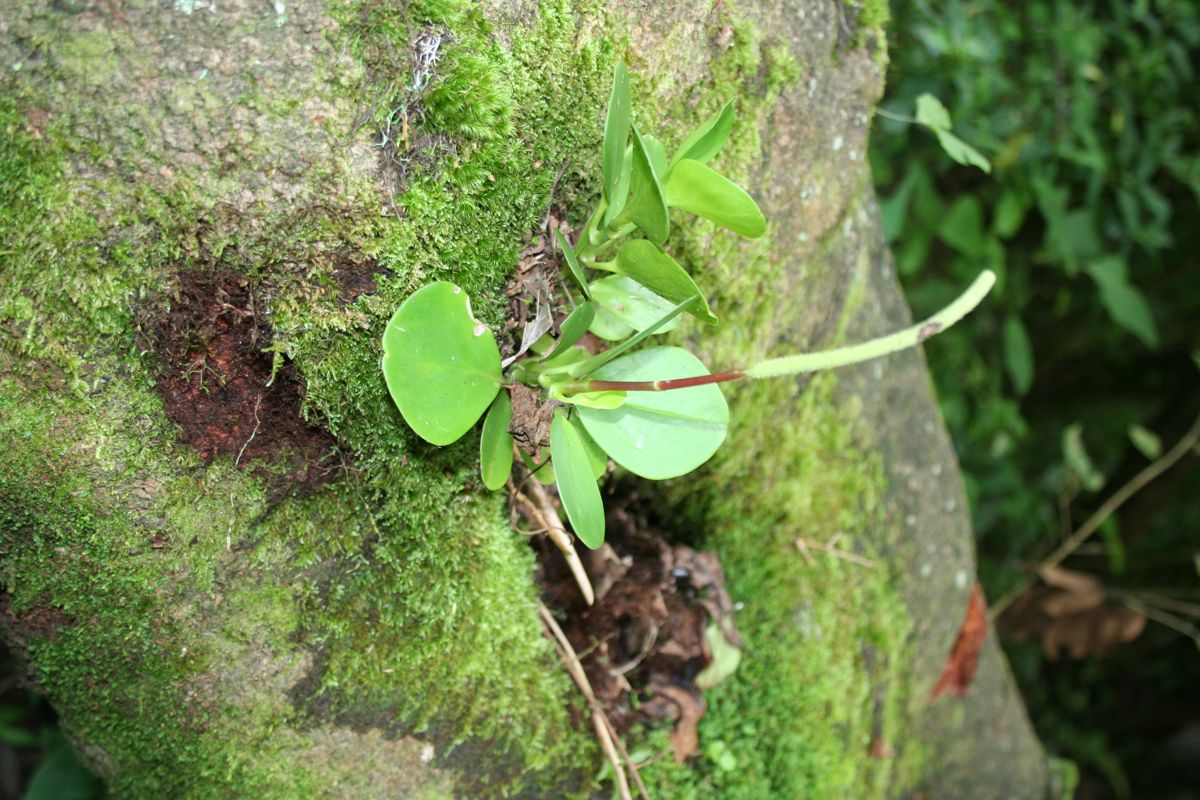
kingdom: Plantae
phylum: Tracheophyta
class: Magnoliopsida
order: Piperales
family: Piperaceae
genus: Peperomia
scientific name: Peperomia
